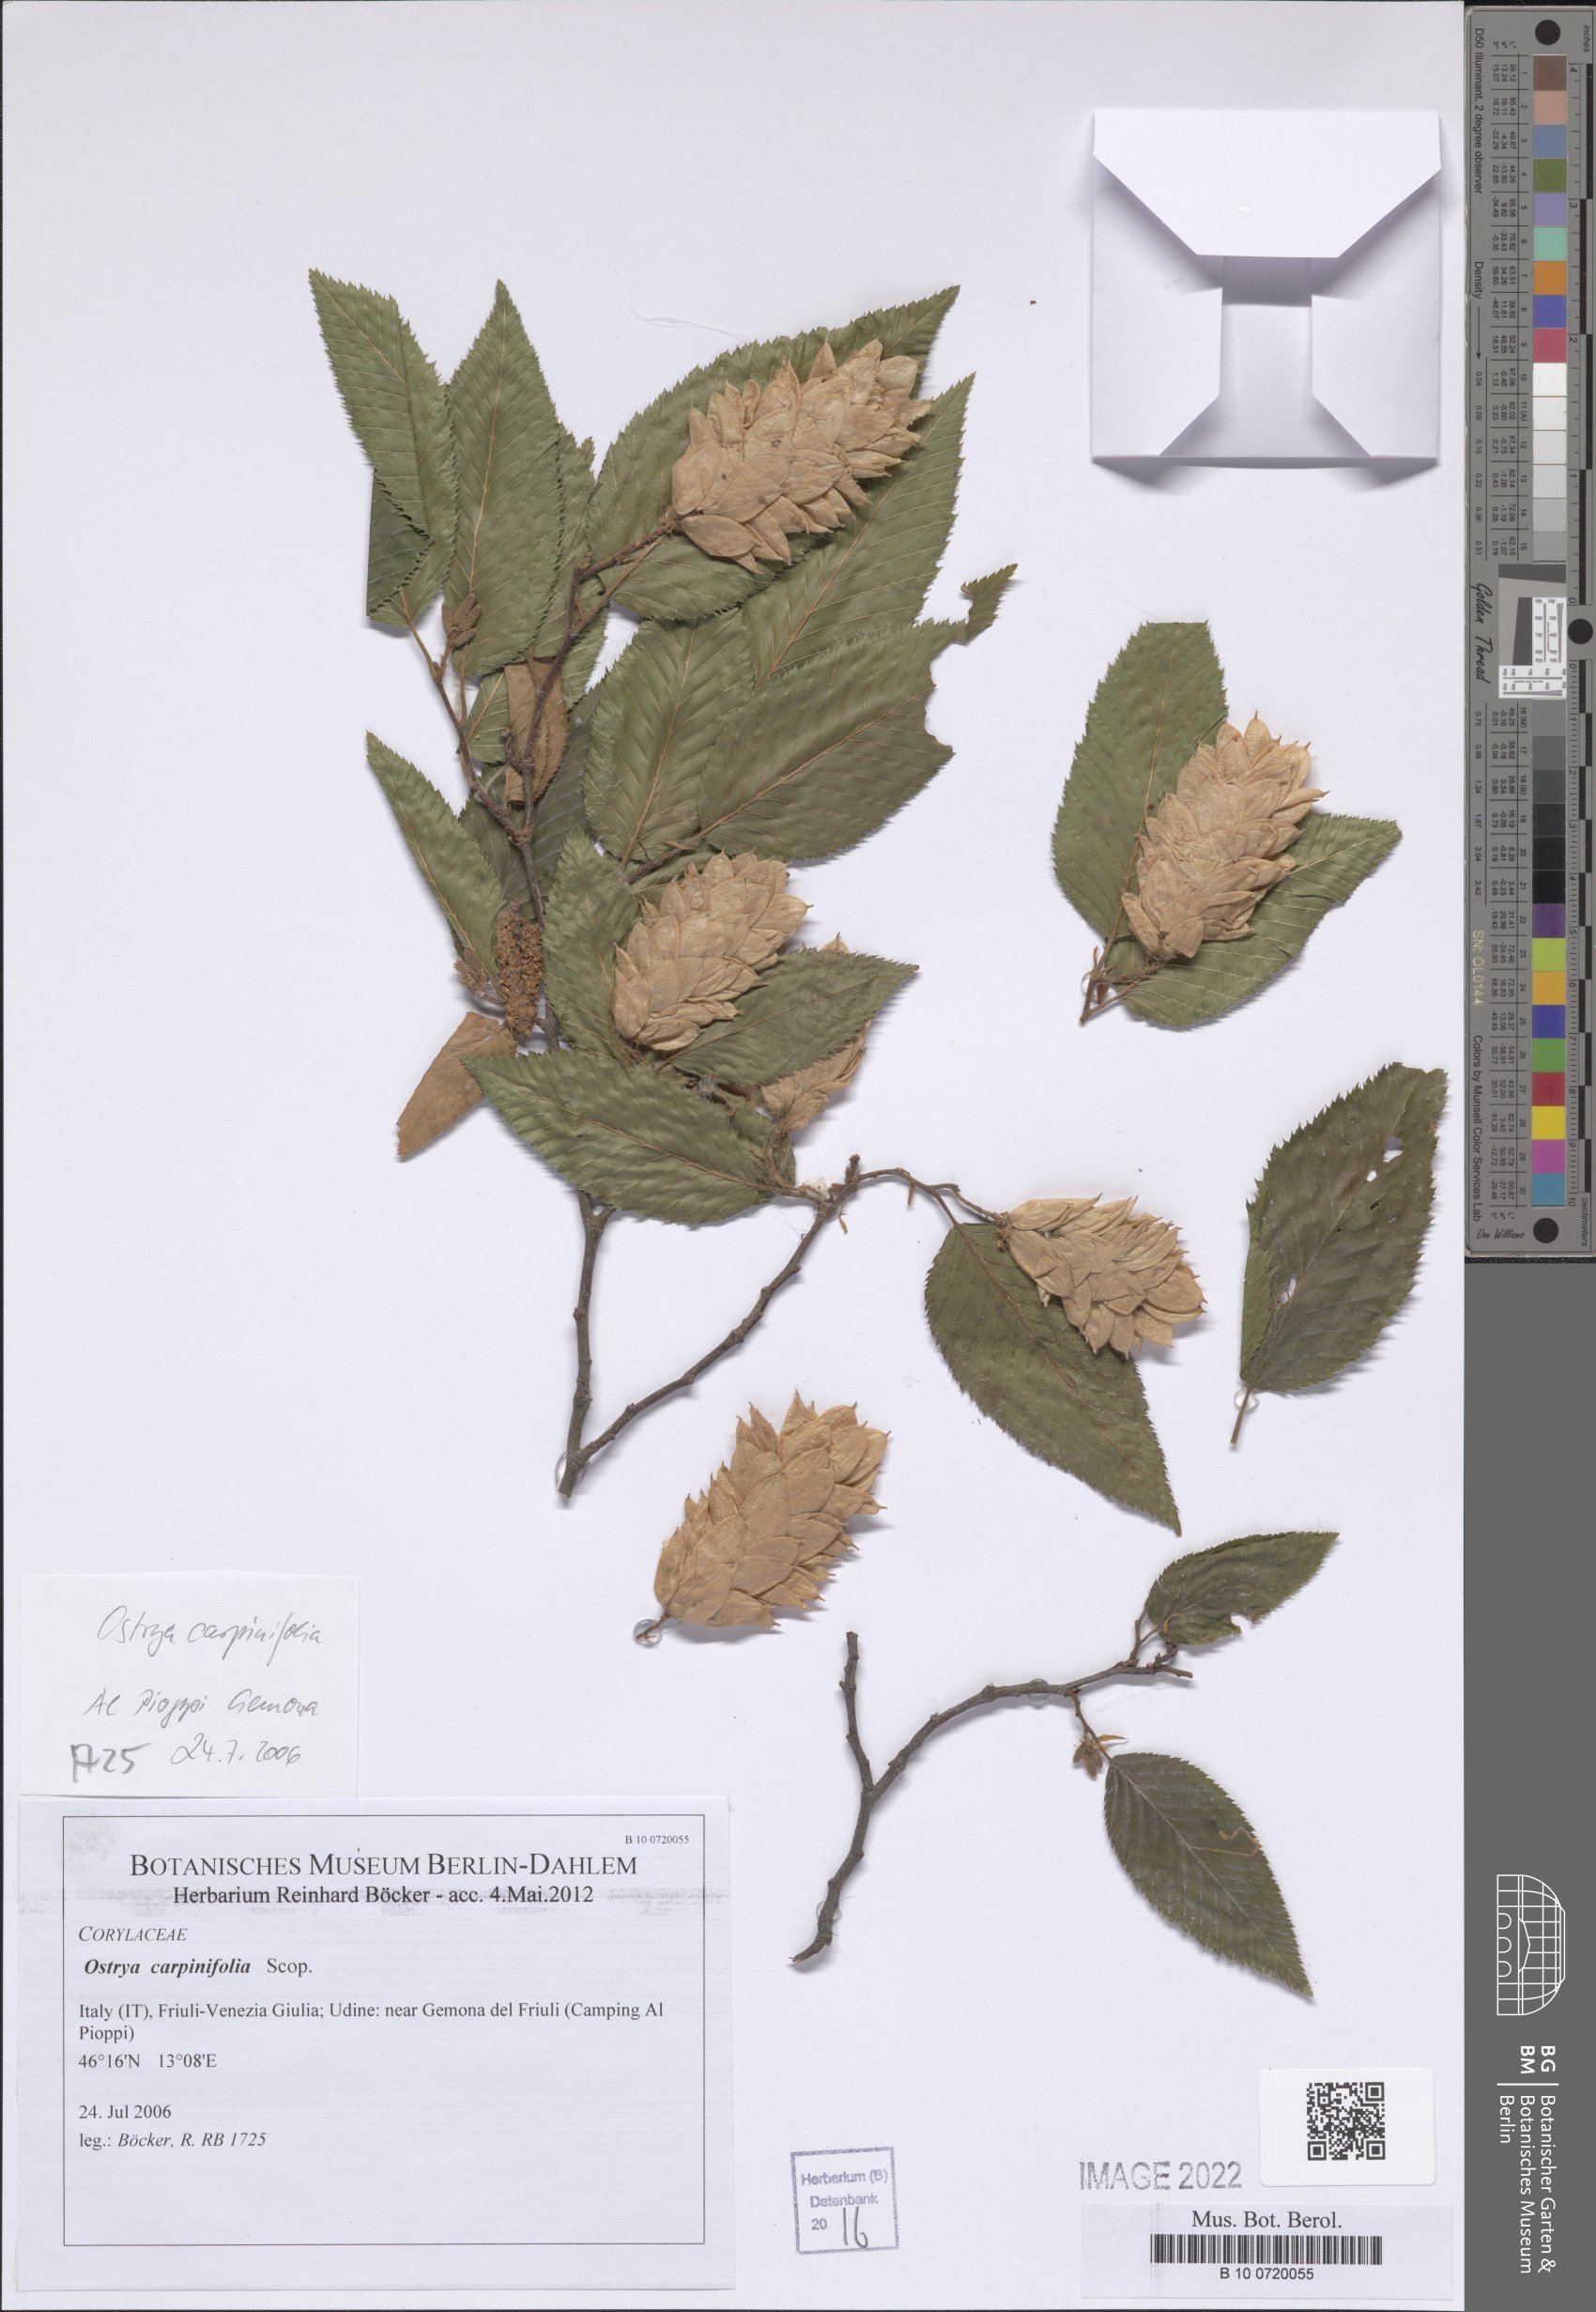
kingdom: Plantae
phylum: Tracheophyta
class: Magnoliopsida
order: Fagales
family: Betulaceae
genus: Ostrya
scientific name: Ostrya carpinifolia
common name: European hop-hornbeam
